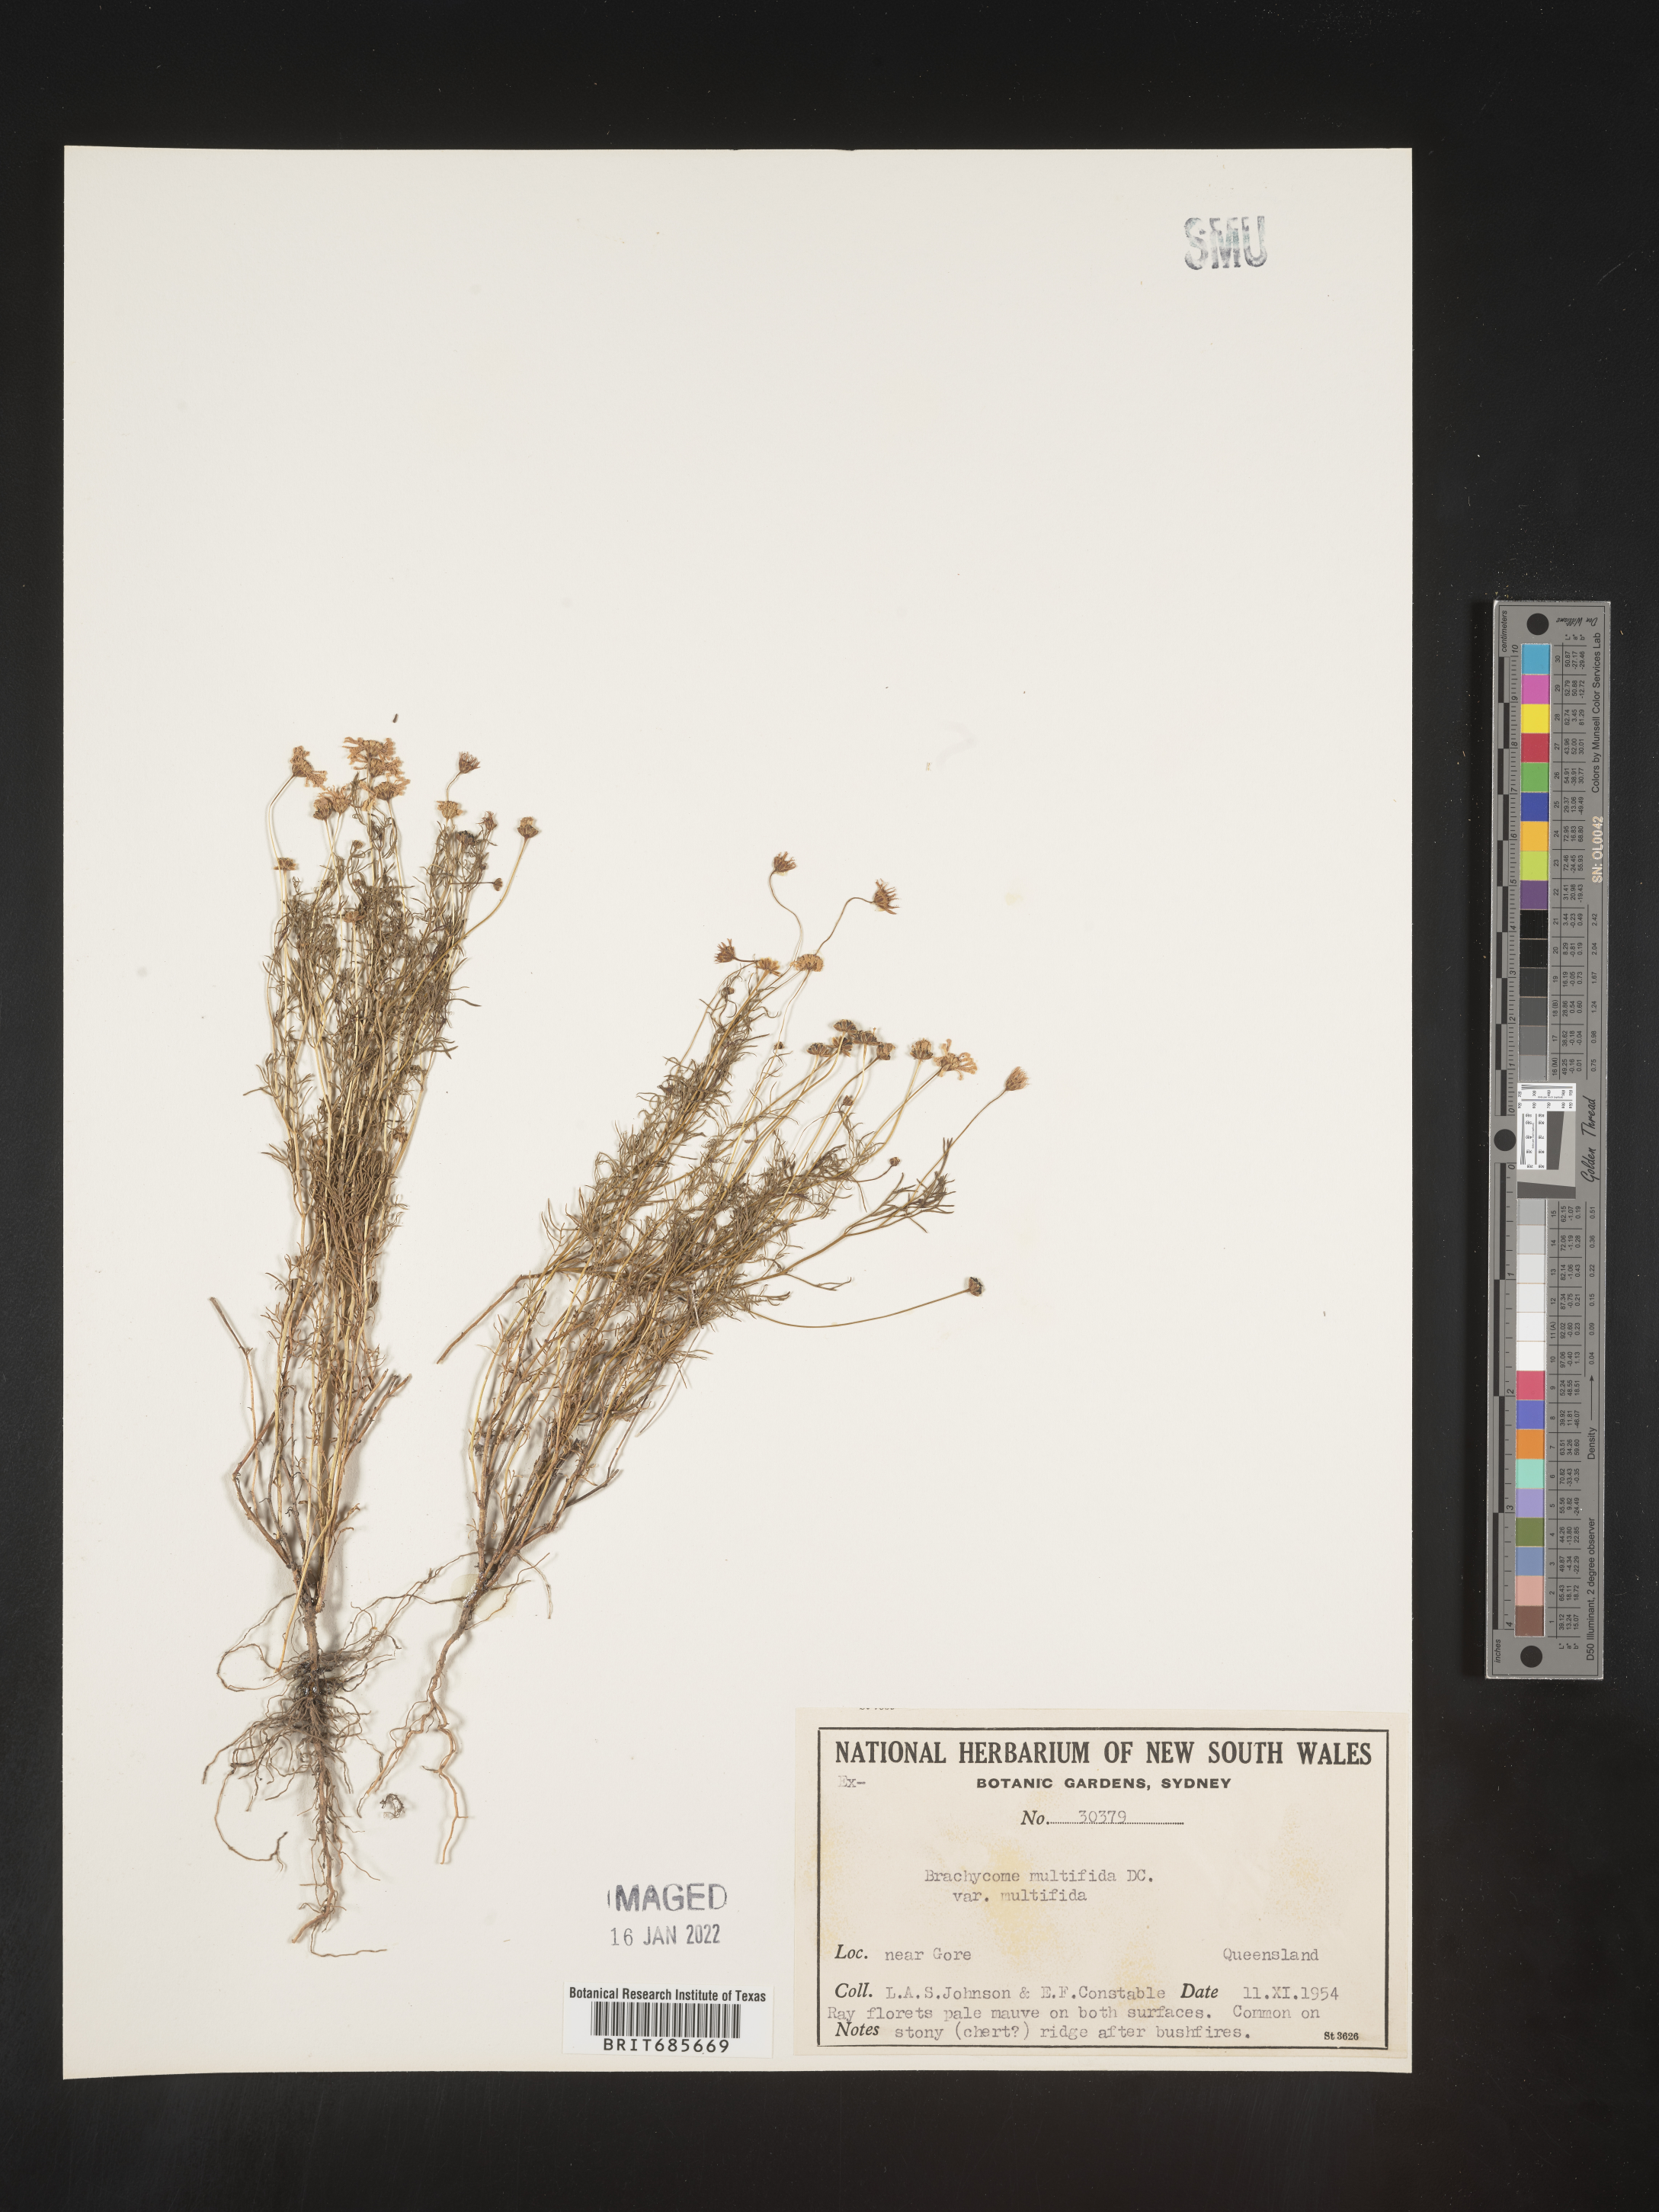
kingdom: Plantae
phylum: Tracheophyta
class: Magnoliopsida
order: Asterales
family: Asteraceae
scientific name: Asteraceae
